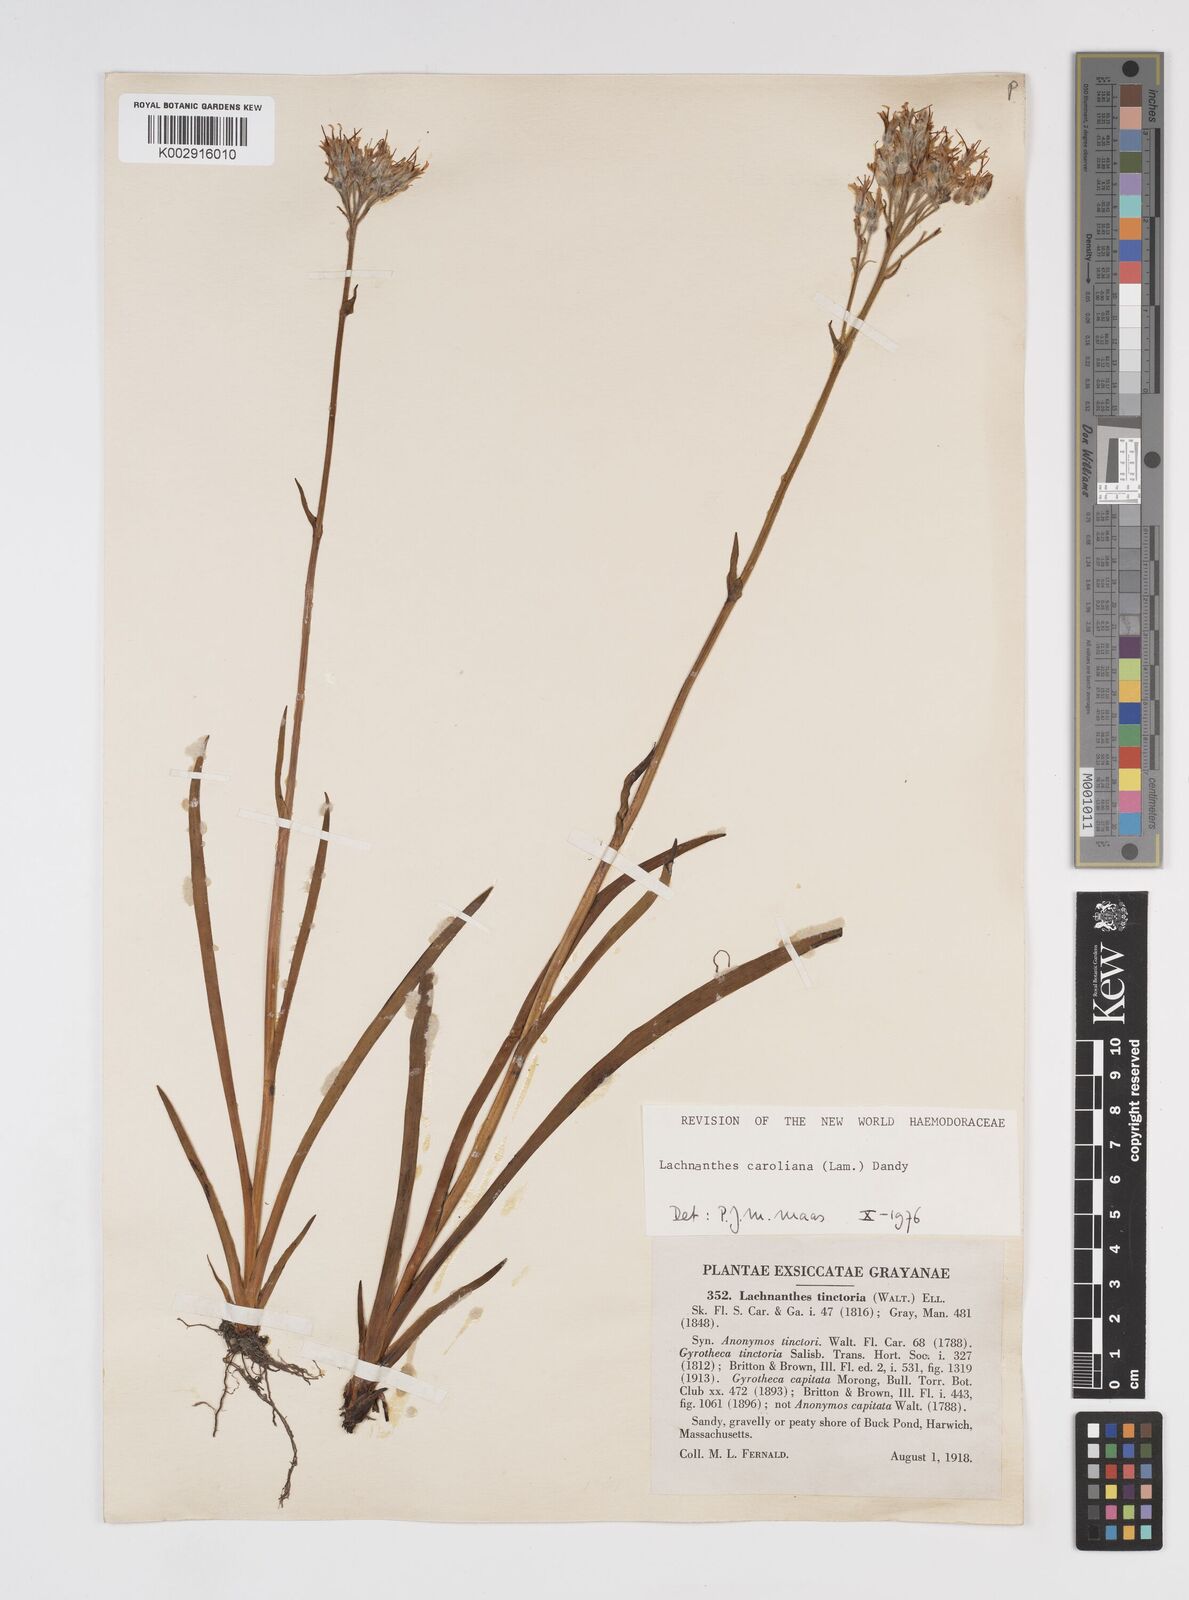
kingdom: Plantae
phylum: Tracheophyta
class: Liliopsida
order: Commelinales
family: Haemodoraceae
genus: Lachnanthes
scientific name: Lachnanthes caroliniana
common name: Carolina redroot
